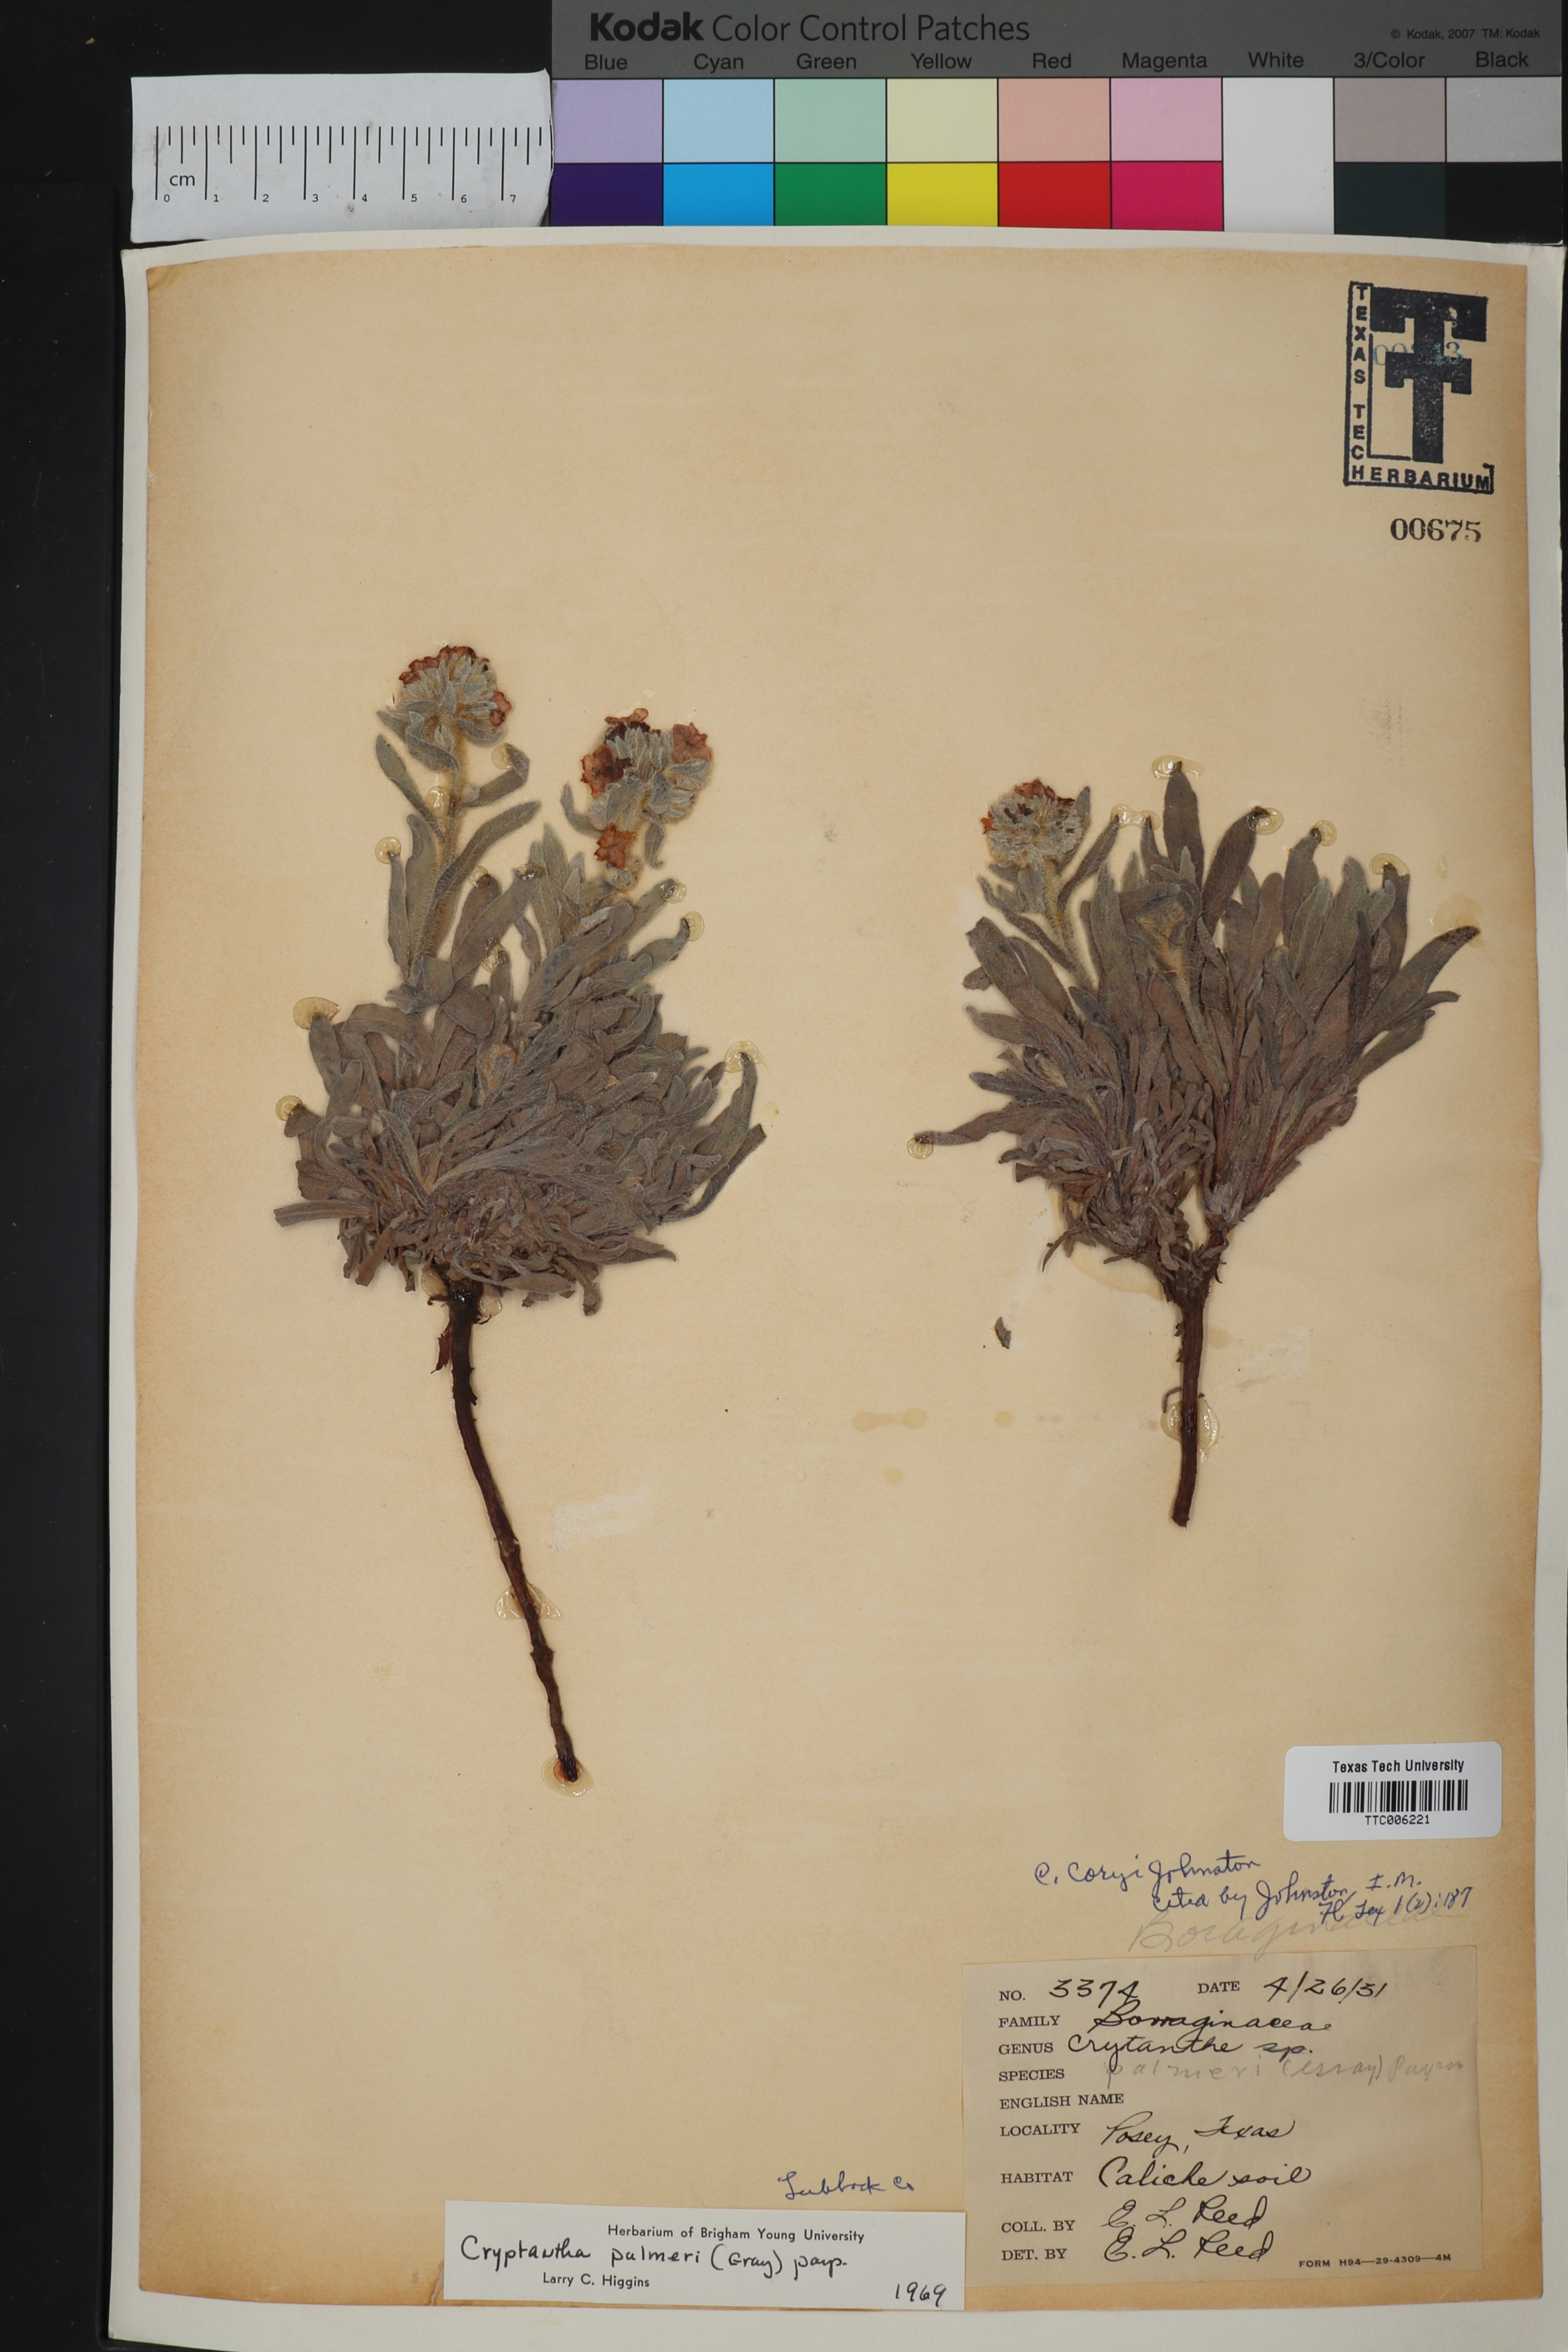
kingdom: Plantae
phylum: Tracheophyta
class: Magnoliopsida
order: Boraginales
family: Boraginaceae
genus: Oreocarya
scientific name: Oreocarya palmeri
